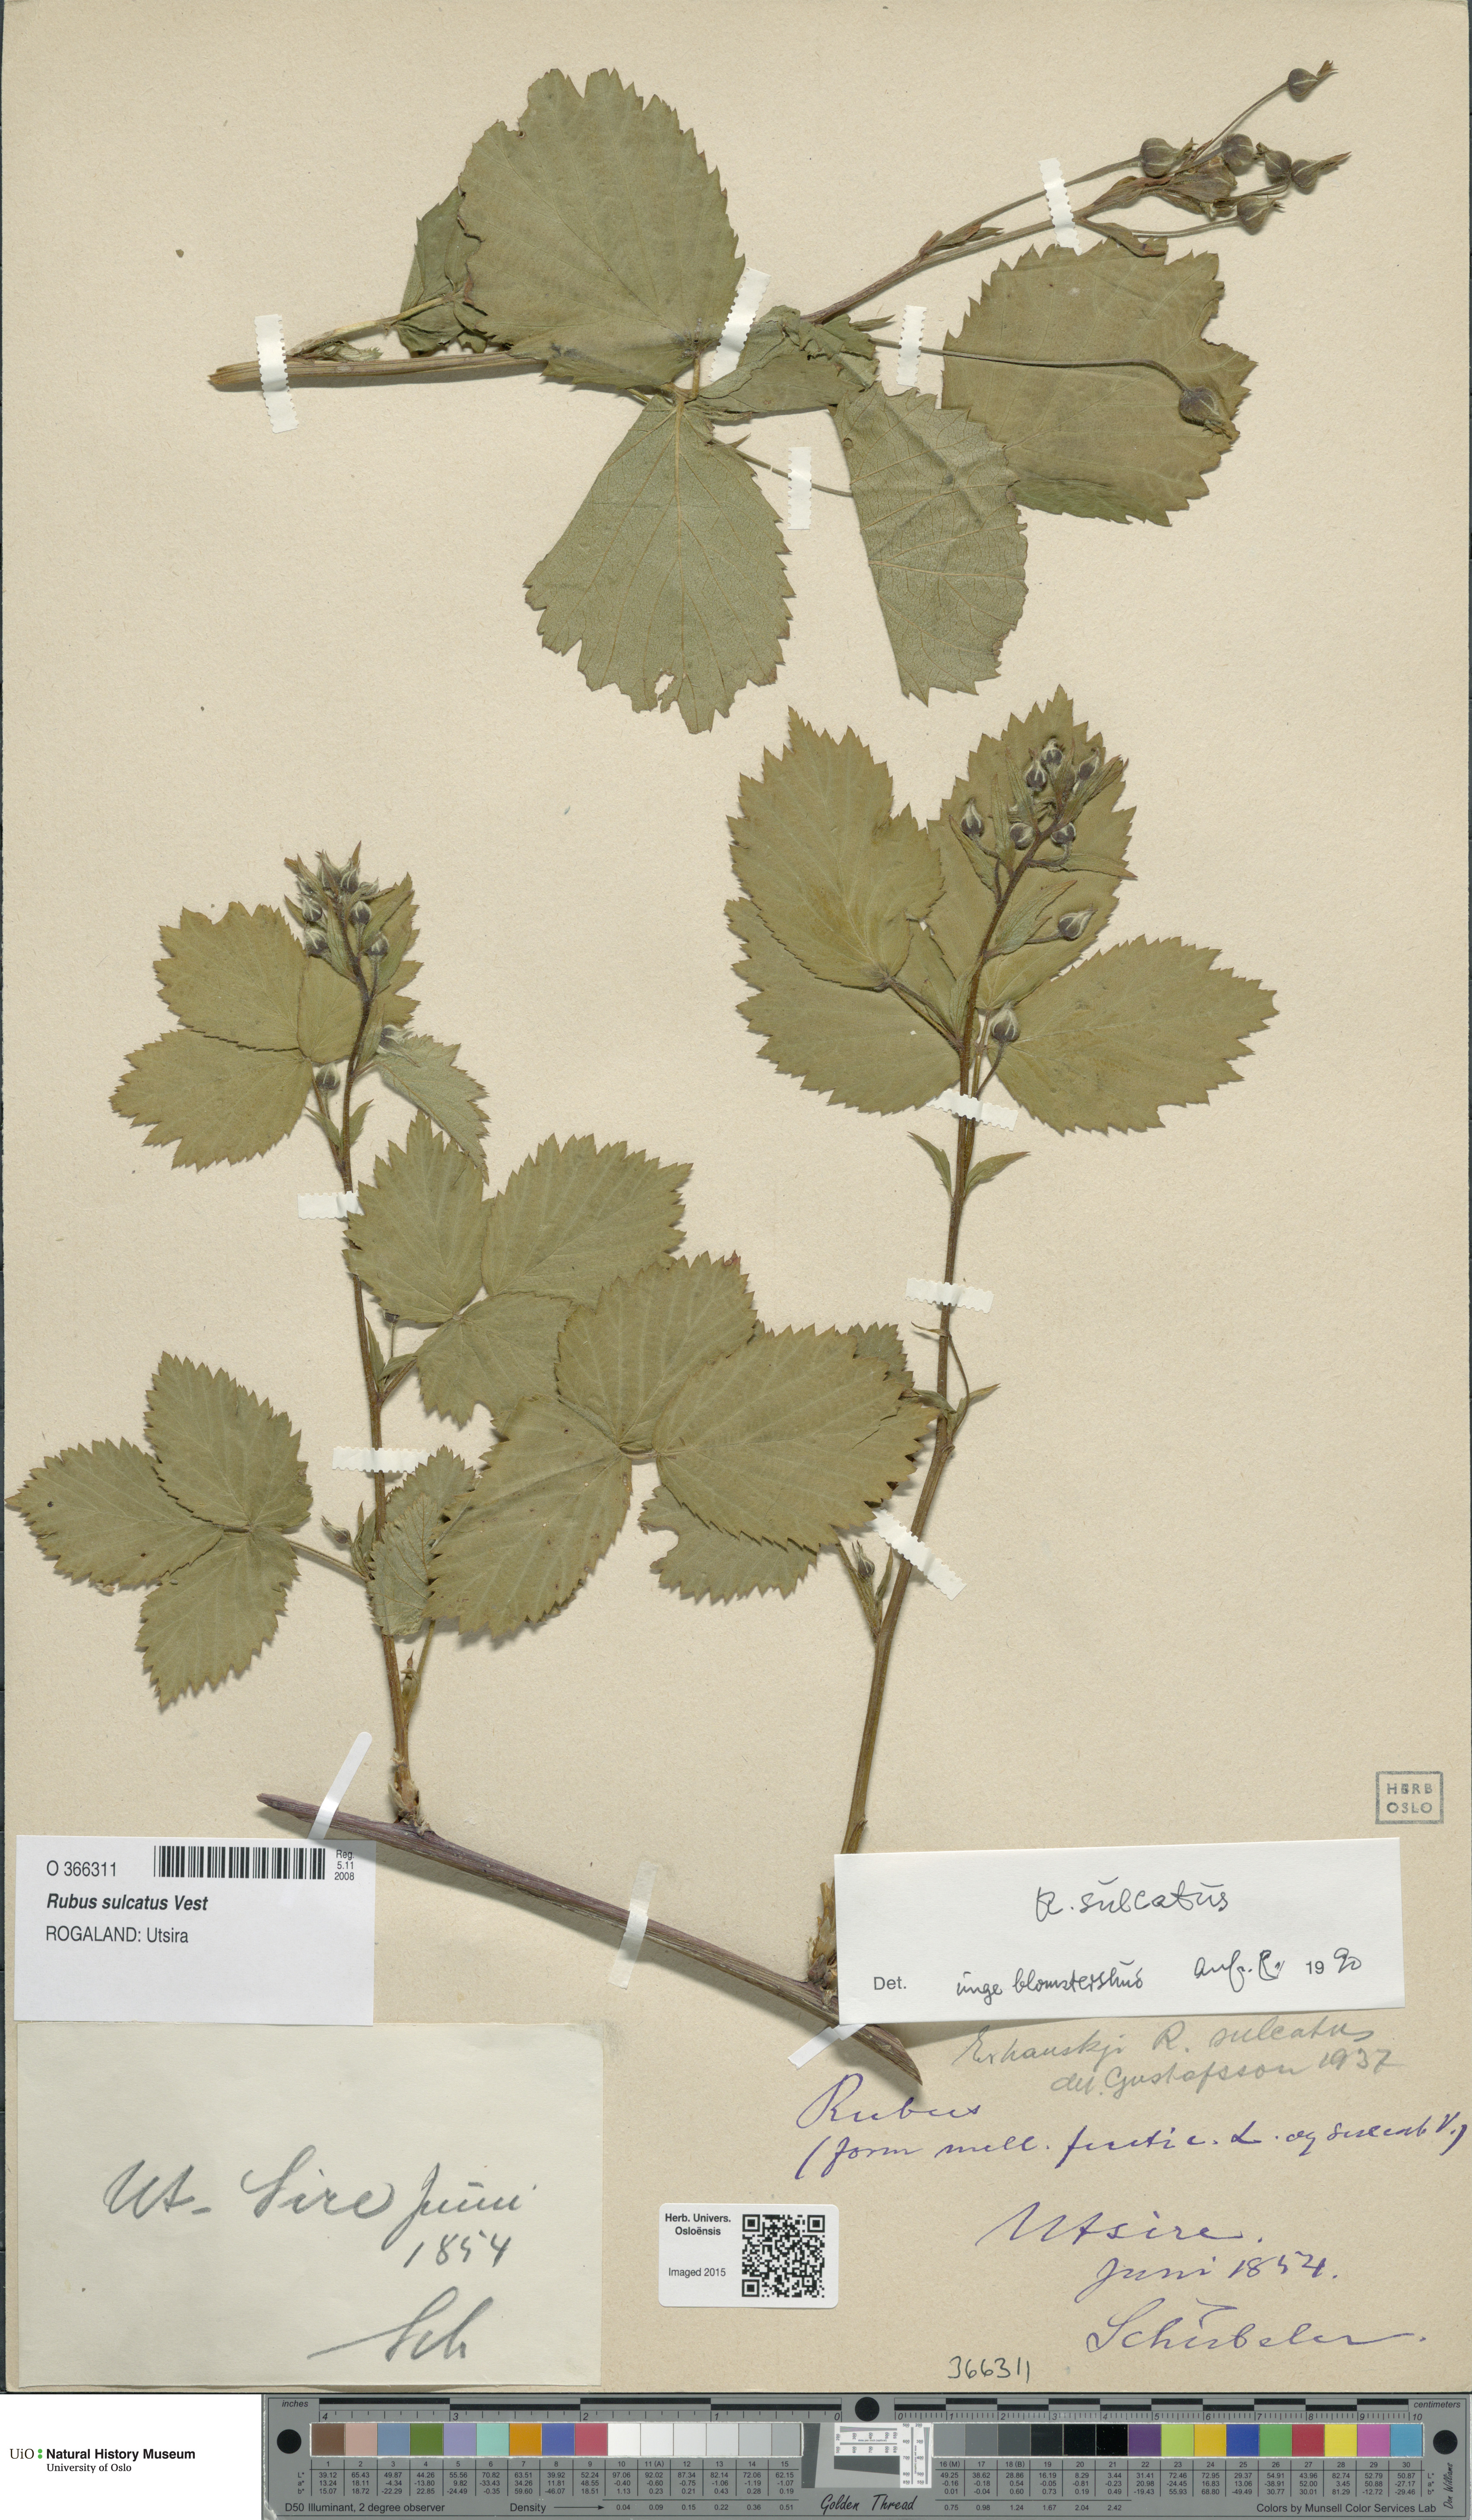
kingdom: Plantae
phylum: Tracheophyta
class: Magnoliopsida
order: Rosales
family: Rosaceae
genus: Rubus
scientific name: Rubus sulcatus
